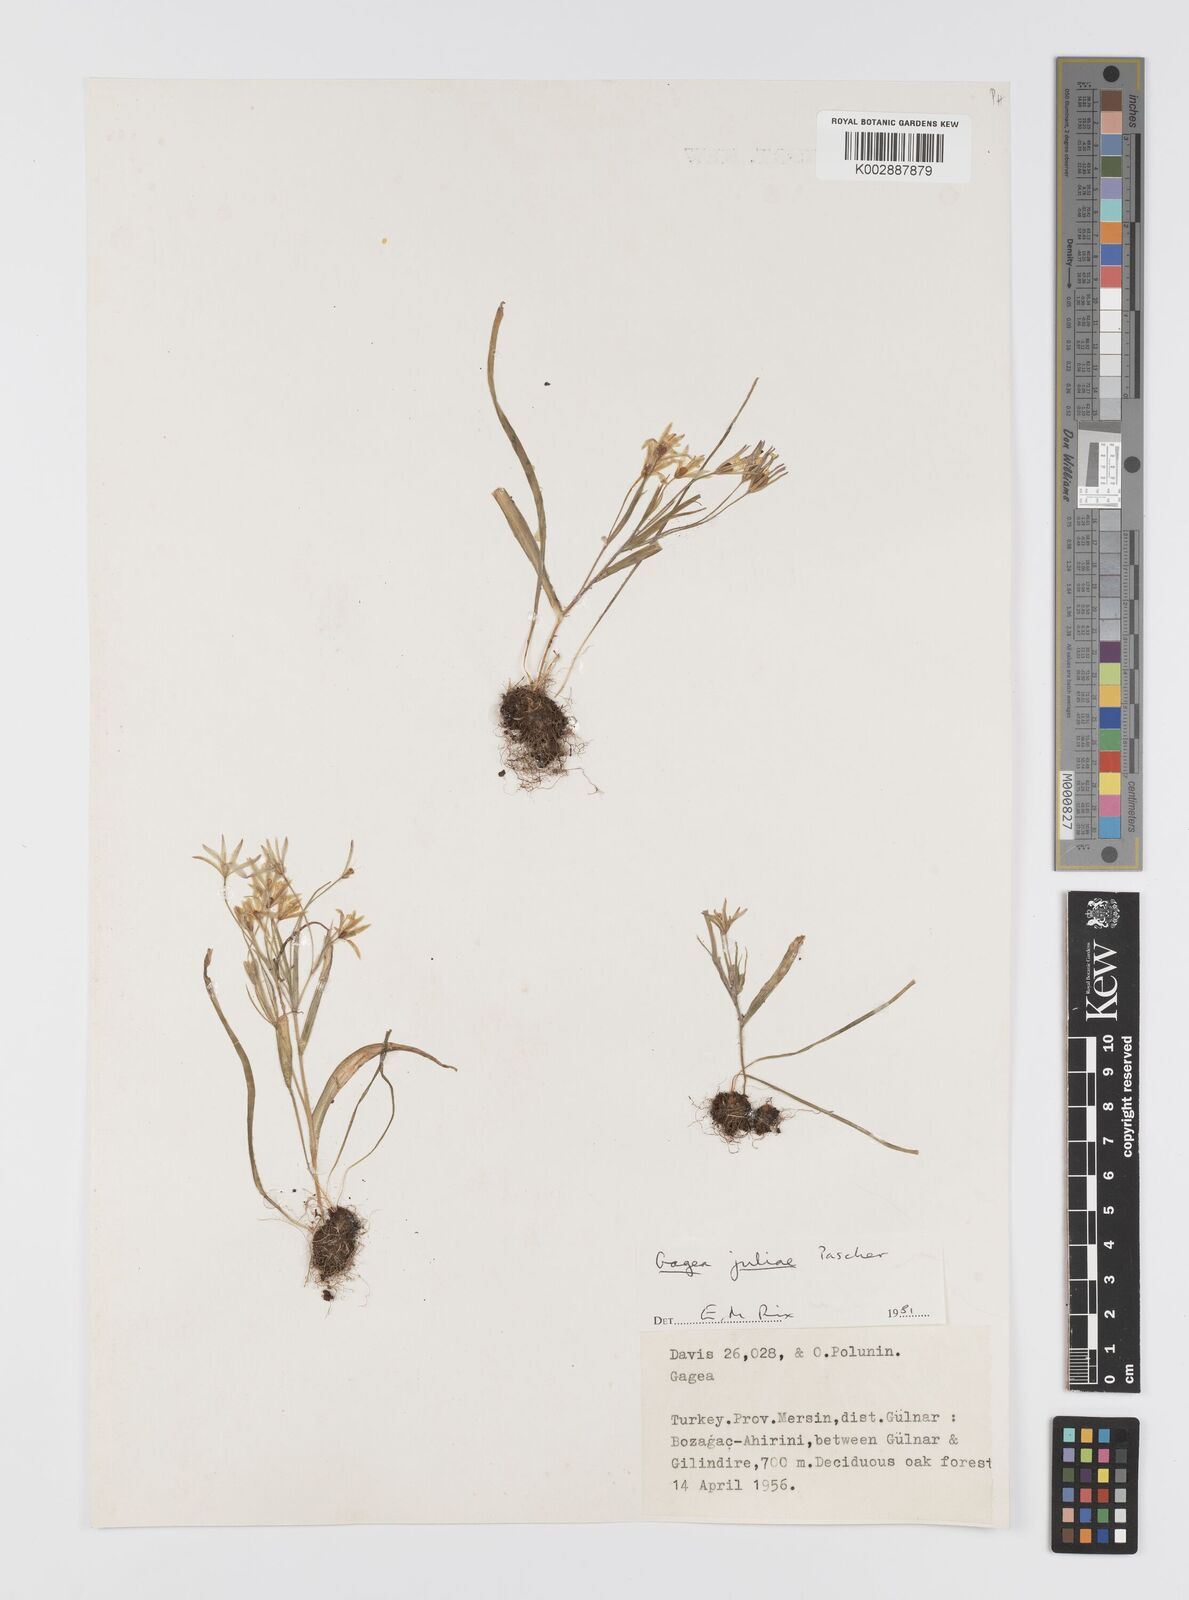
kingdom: Plantae
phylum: Tracheophyta
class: Liliopsida
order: Liliales
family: Liliaceae
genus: Gagea
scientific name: Gagea juliae
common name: Julia’s gagea
